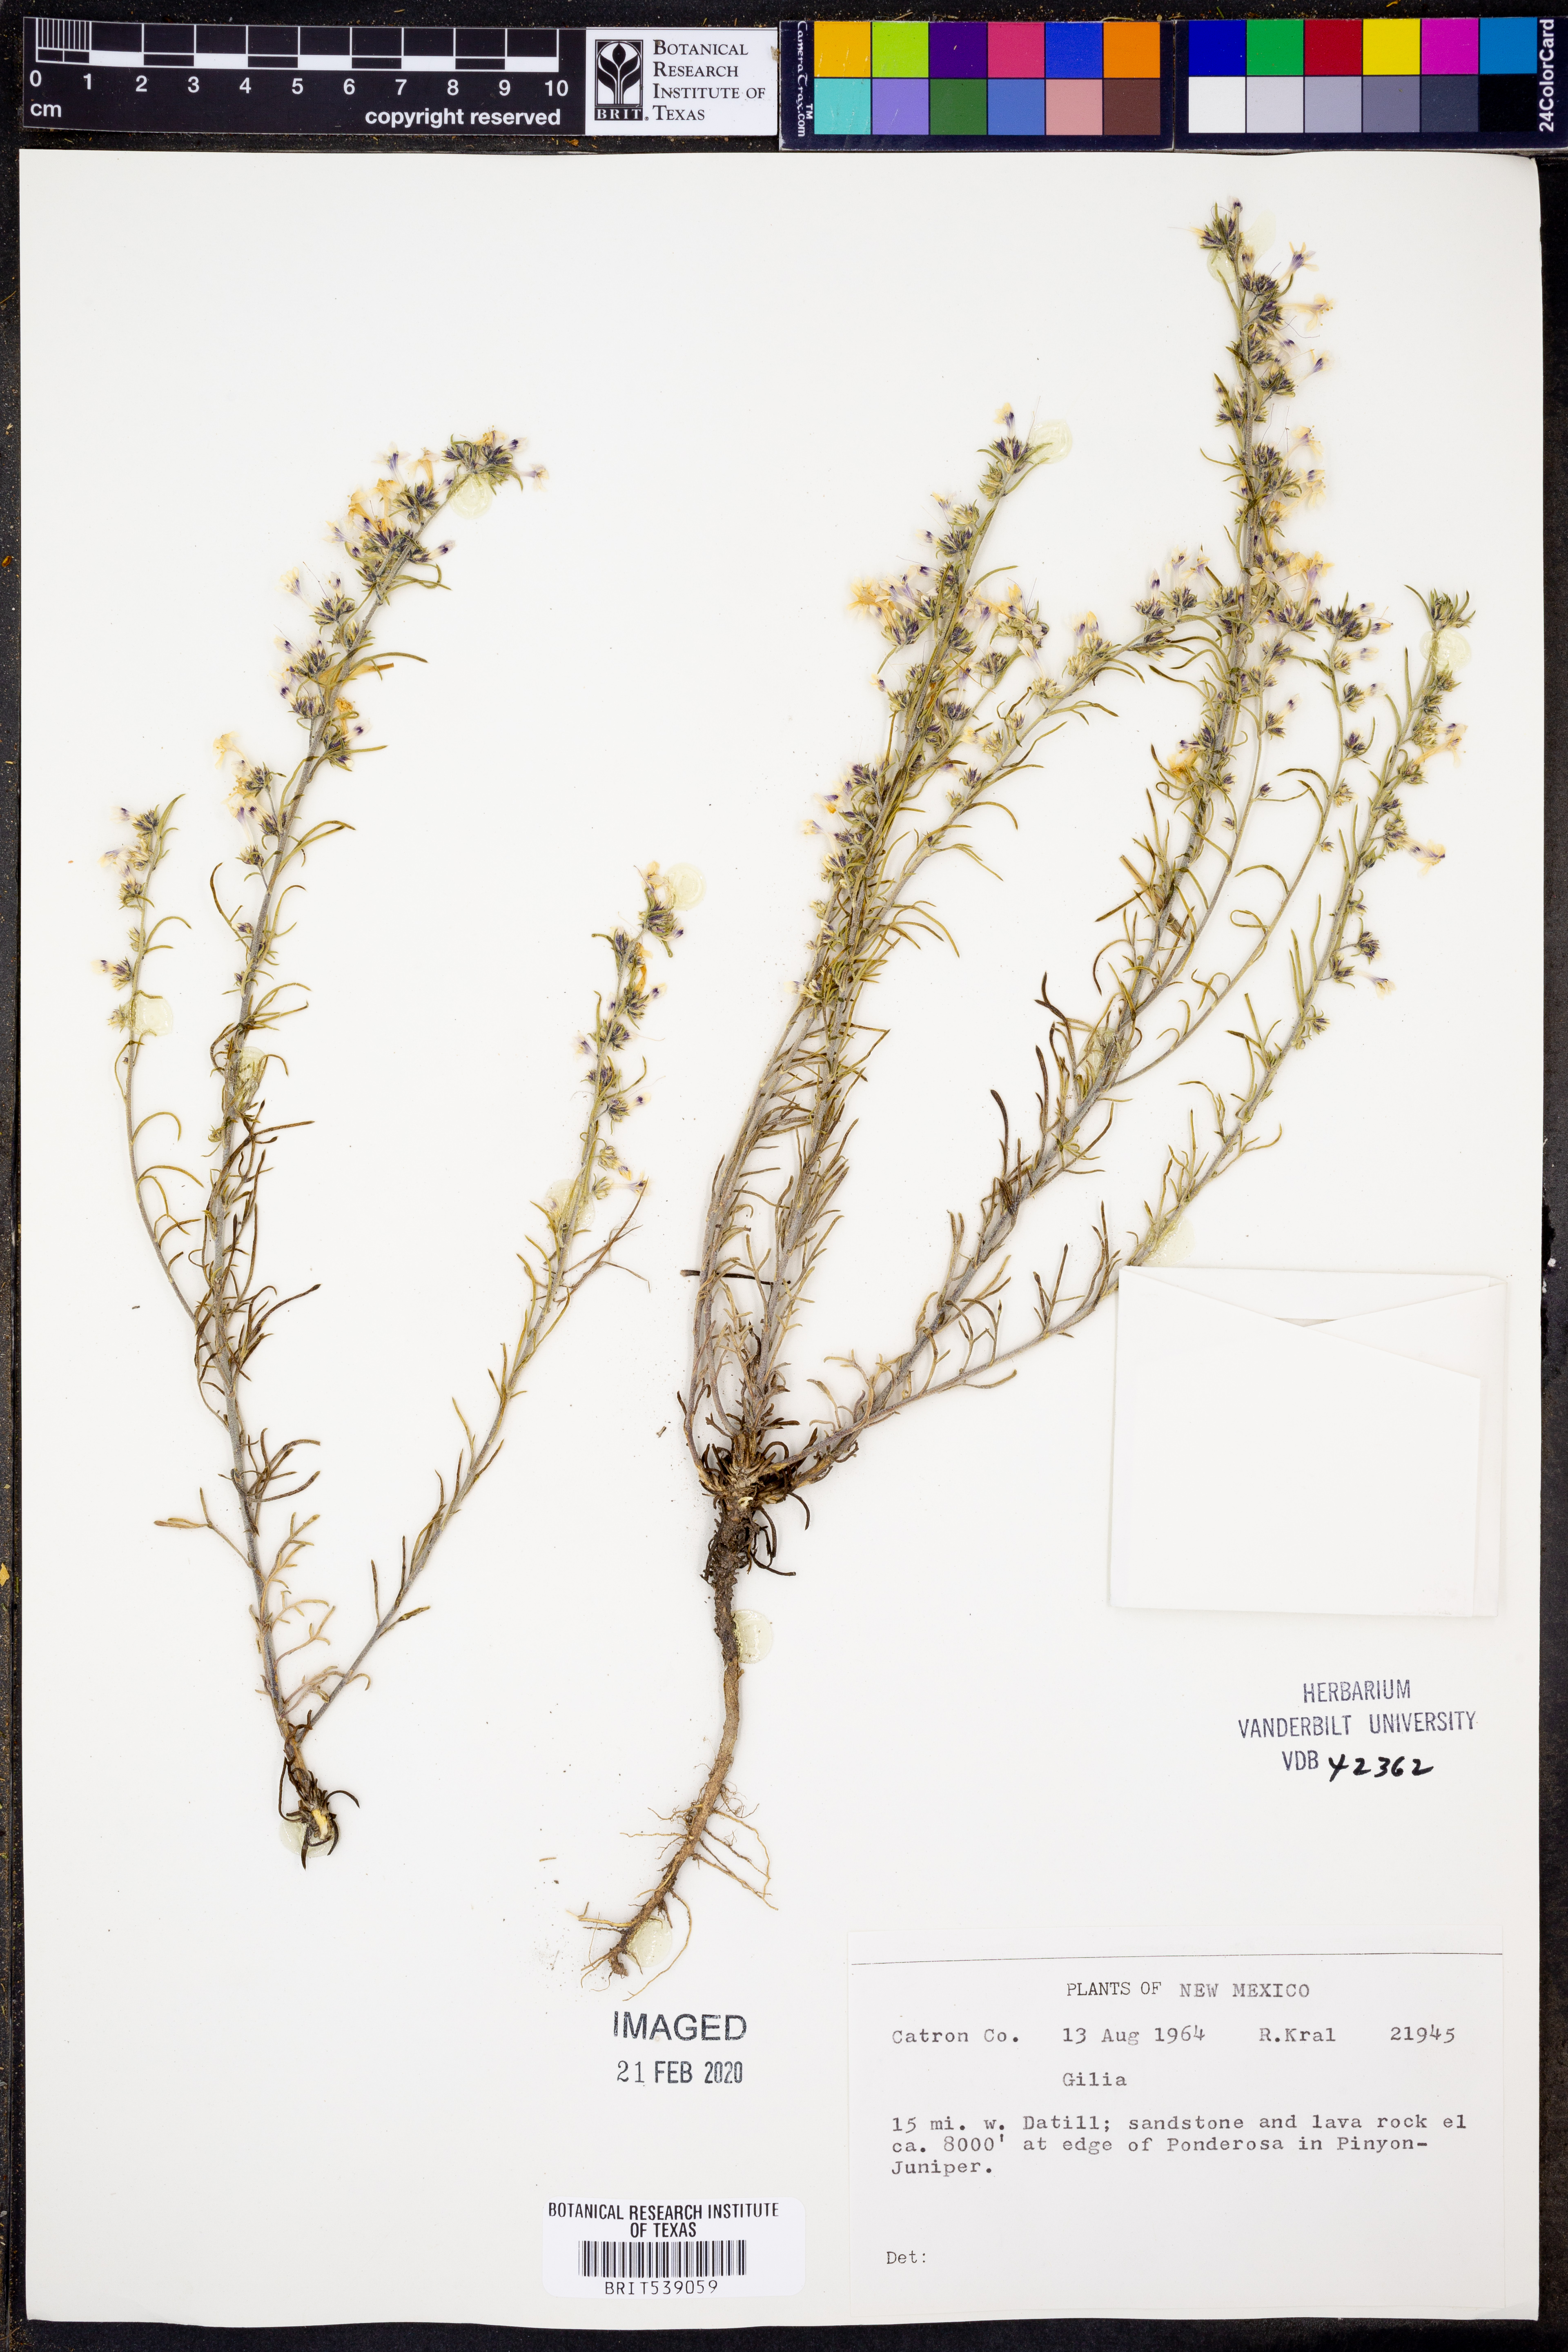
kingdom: Plantae
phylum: Tracheophyta
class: Magnoliopsida
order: Ericales
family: Polemoniaceae
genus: Gilia
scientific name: Gilia
